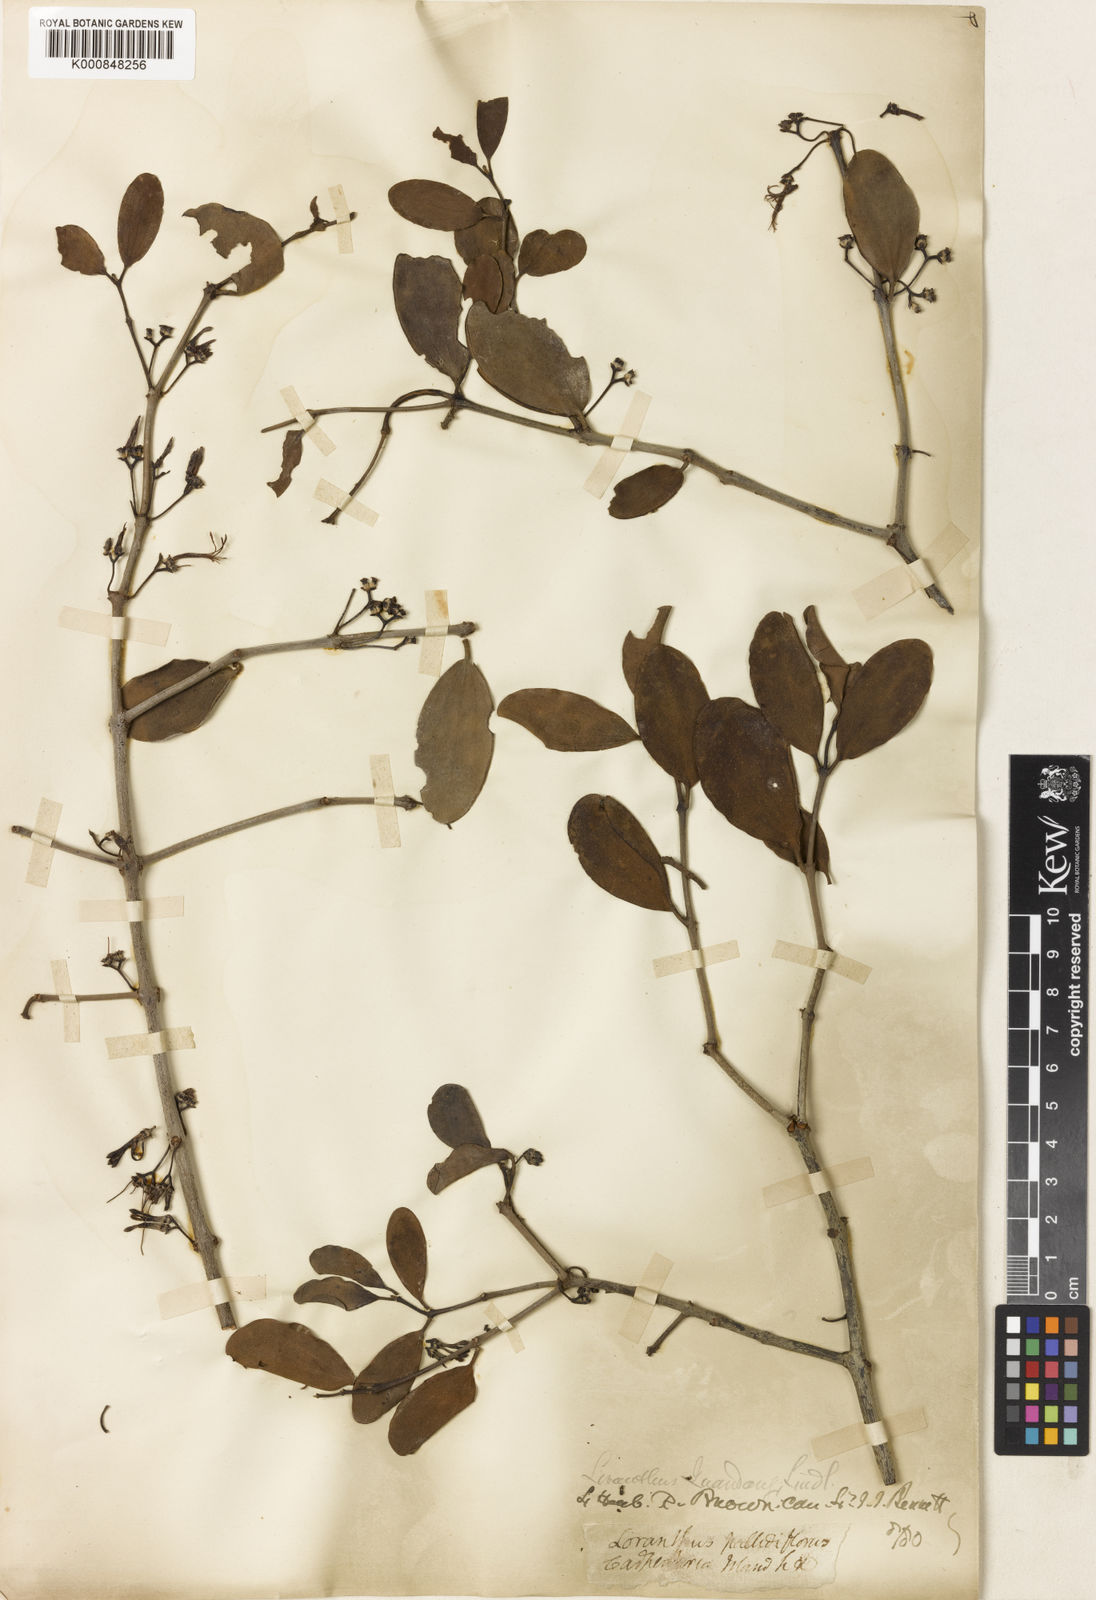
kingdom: Plantae
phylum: Tracheophyta
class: Magnoliopsida
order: Santalales
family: Loranthaceae
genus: Amyema
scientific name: Amyema conspicua
